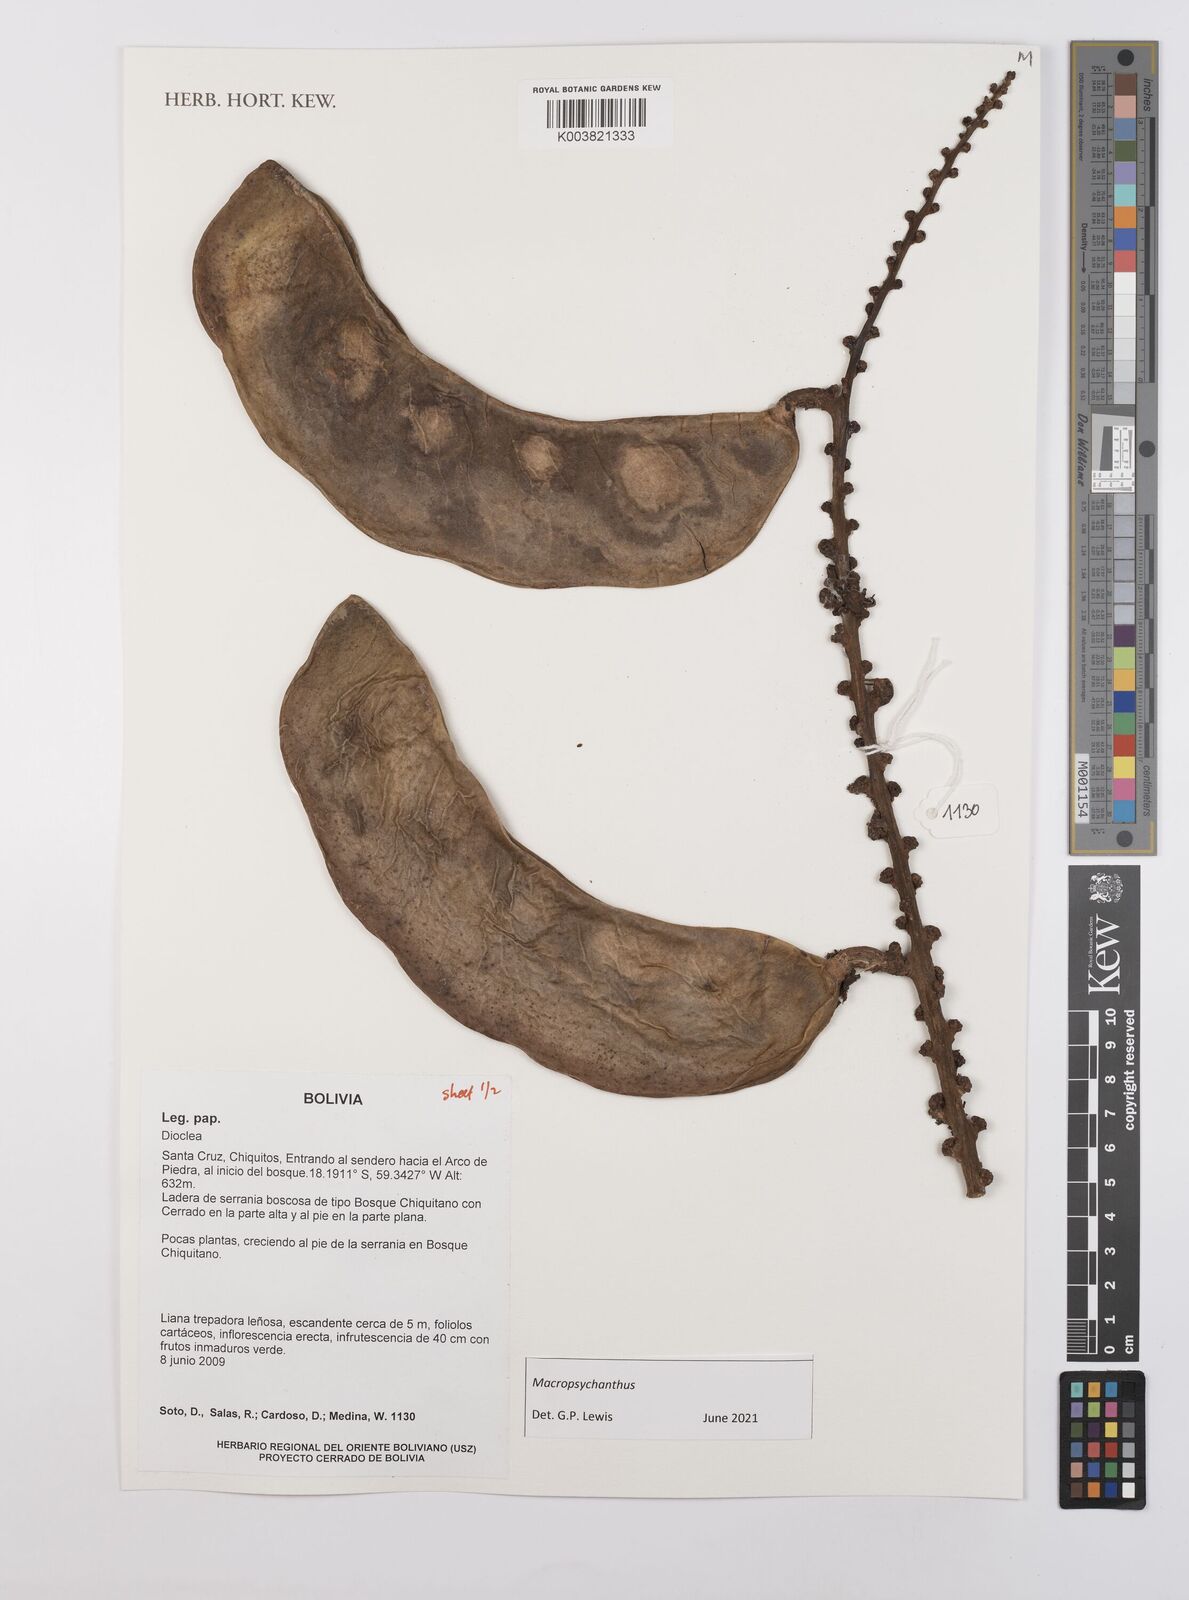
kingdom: Plantae
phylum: Tracheophyta
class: Magnoliopsida
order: Fabales
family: Fabaceae
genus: Macropsychanthus
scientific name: Macropsychanthus
